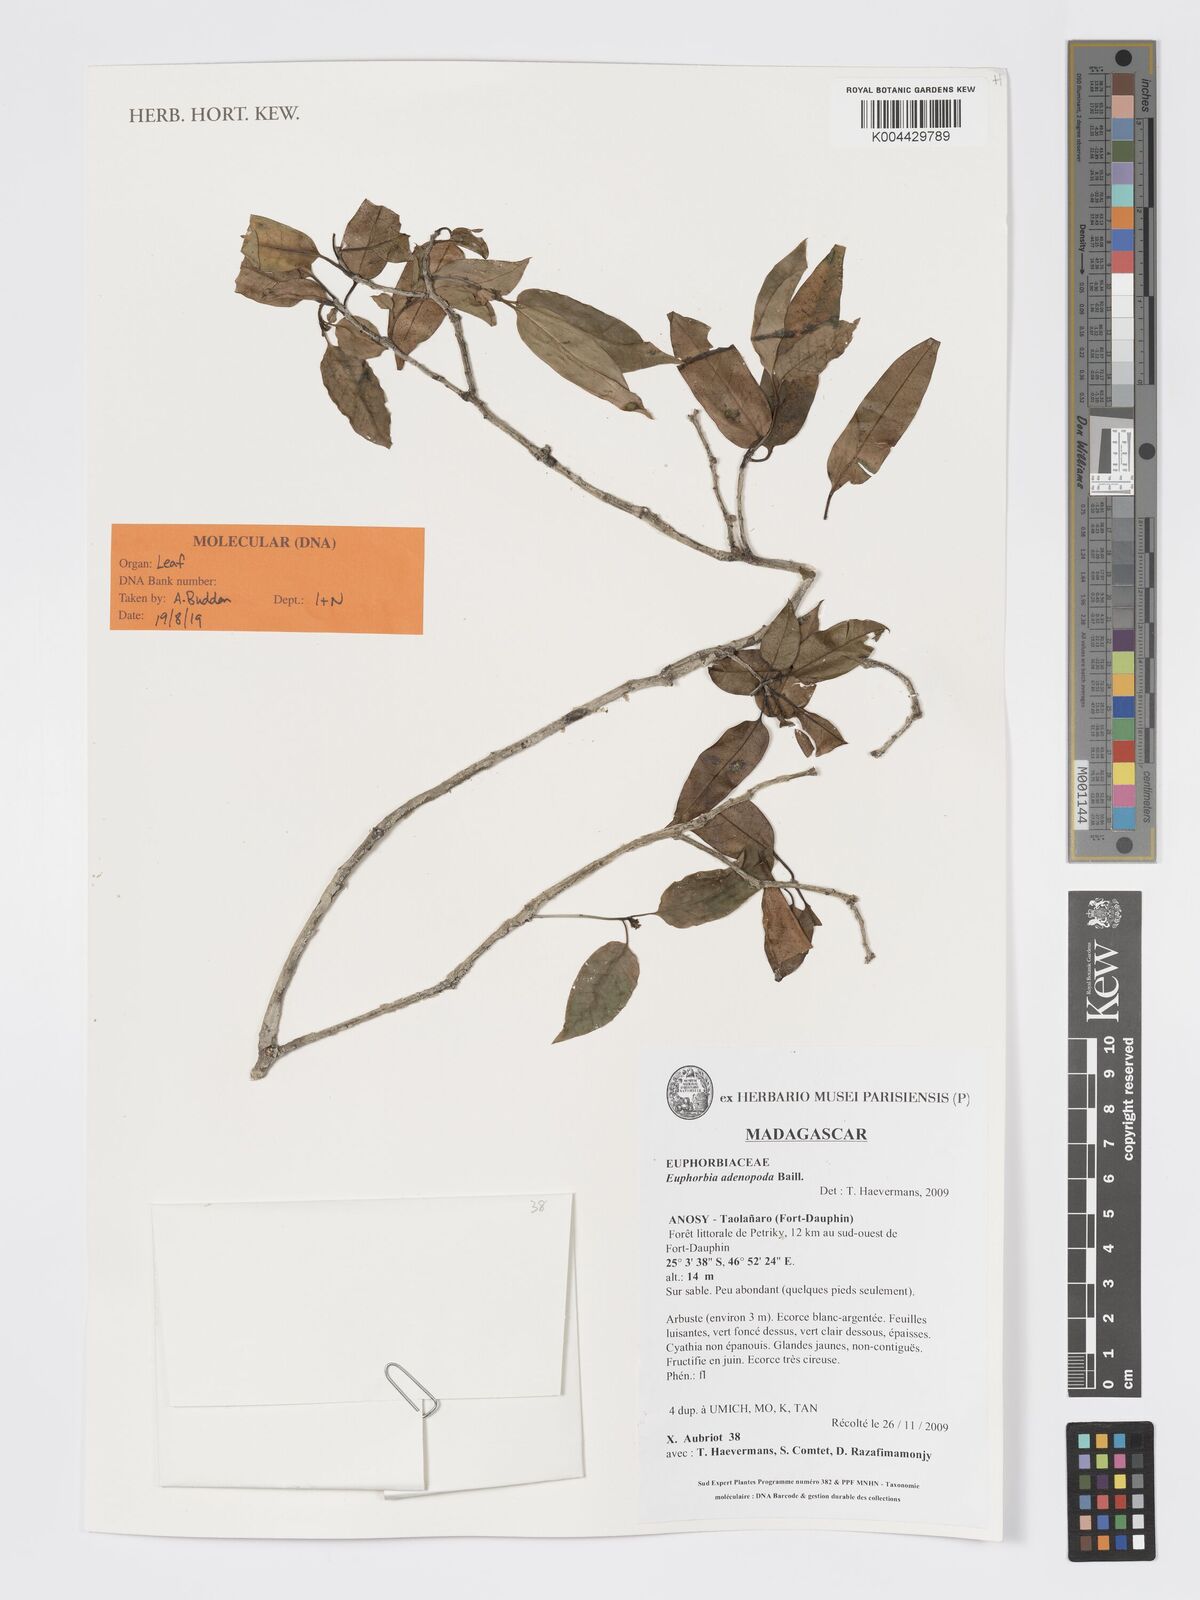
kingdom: Plantae
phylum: Tracheophyta
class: Magnoliopsida
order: Malpighiales
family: Euphorbiaceae
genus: Euphorbia
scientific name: Euphorbia adenopoda
